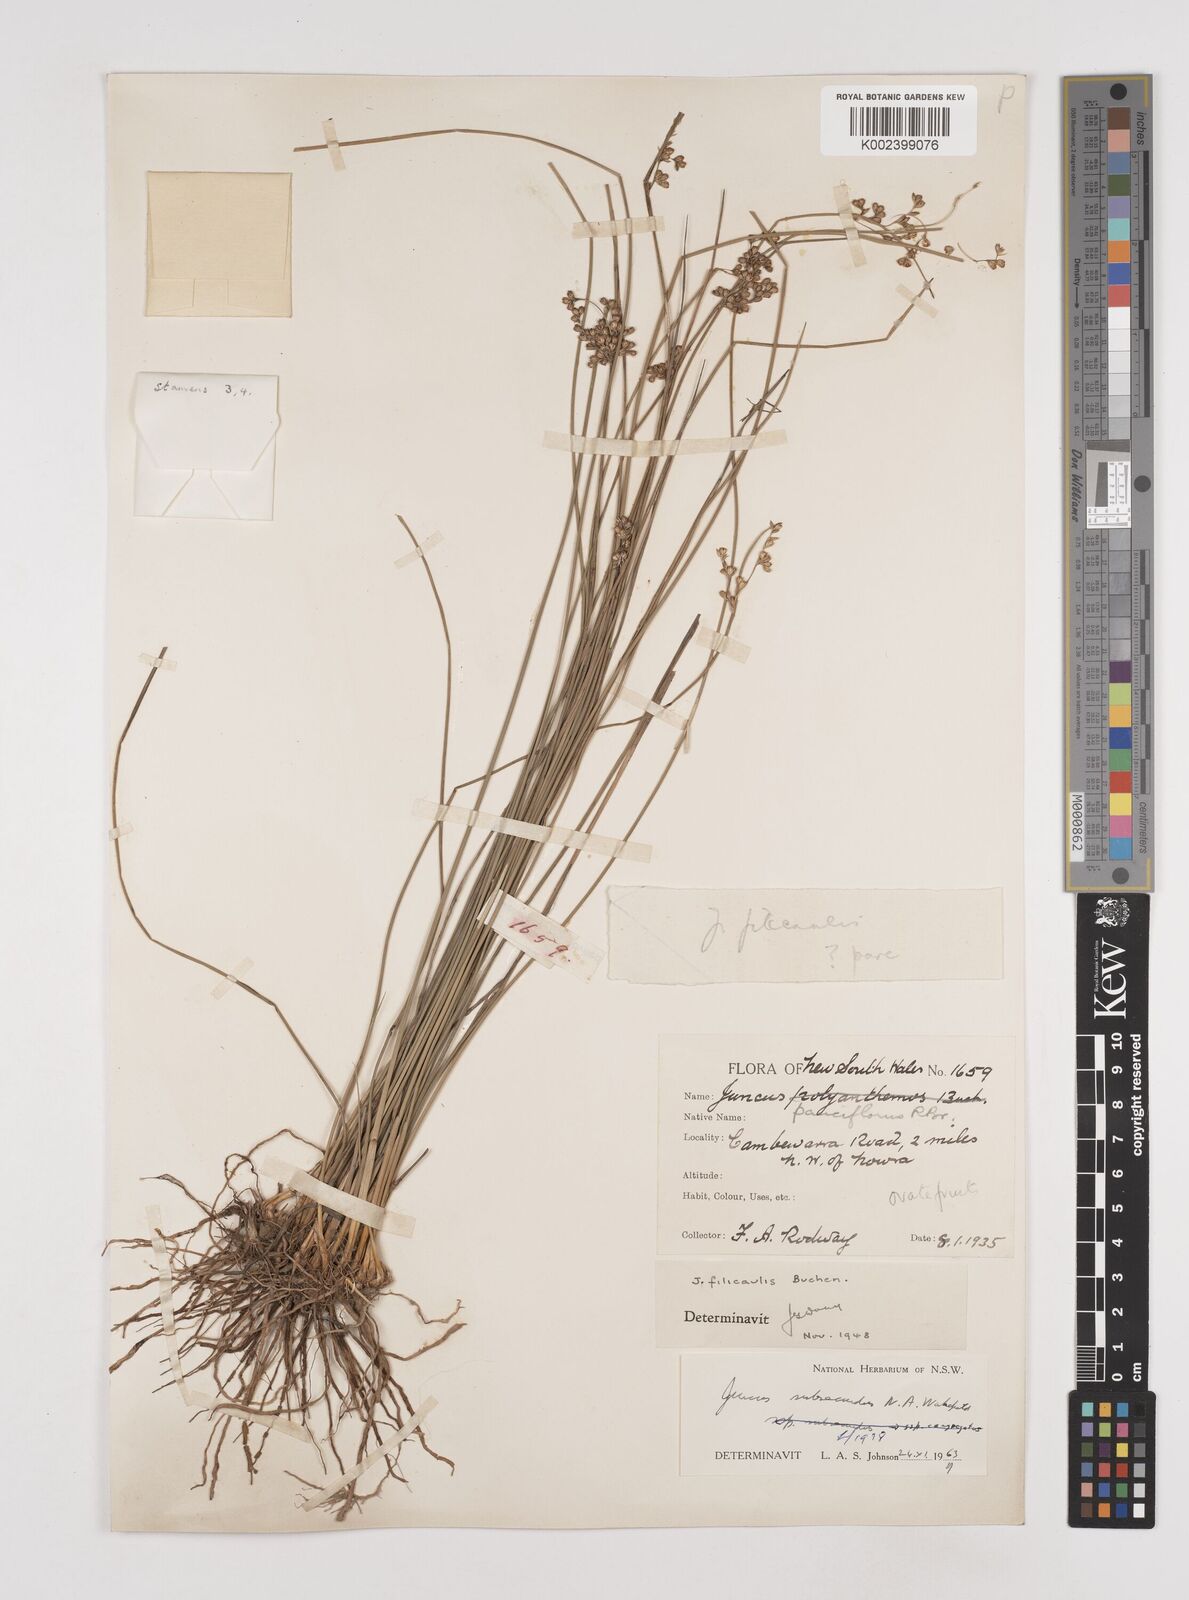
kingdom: Plantae
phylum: Tracheophyta
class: Liliopsida
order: Poales
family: Juncaceae
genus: Juncus
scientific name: Juncus subsecundus
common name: Fingered rush
